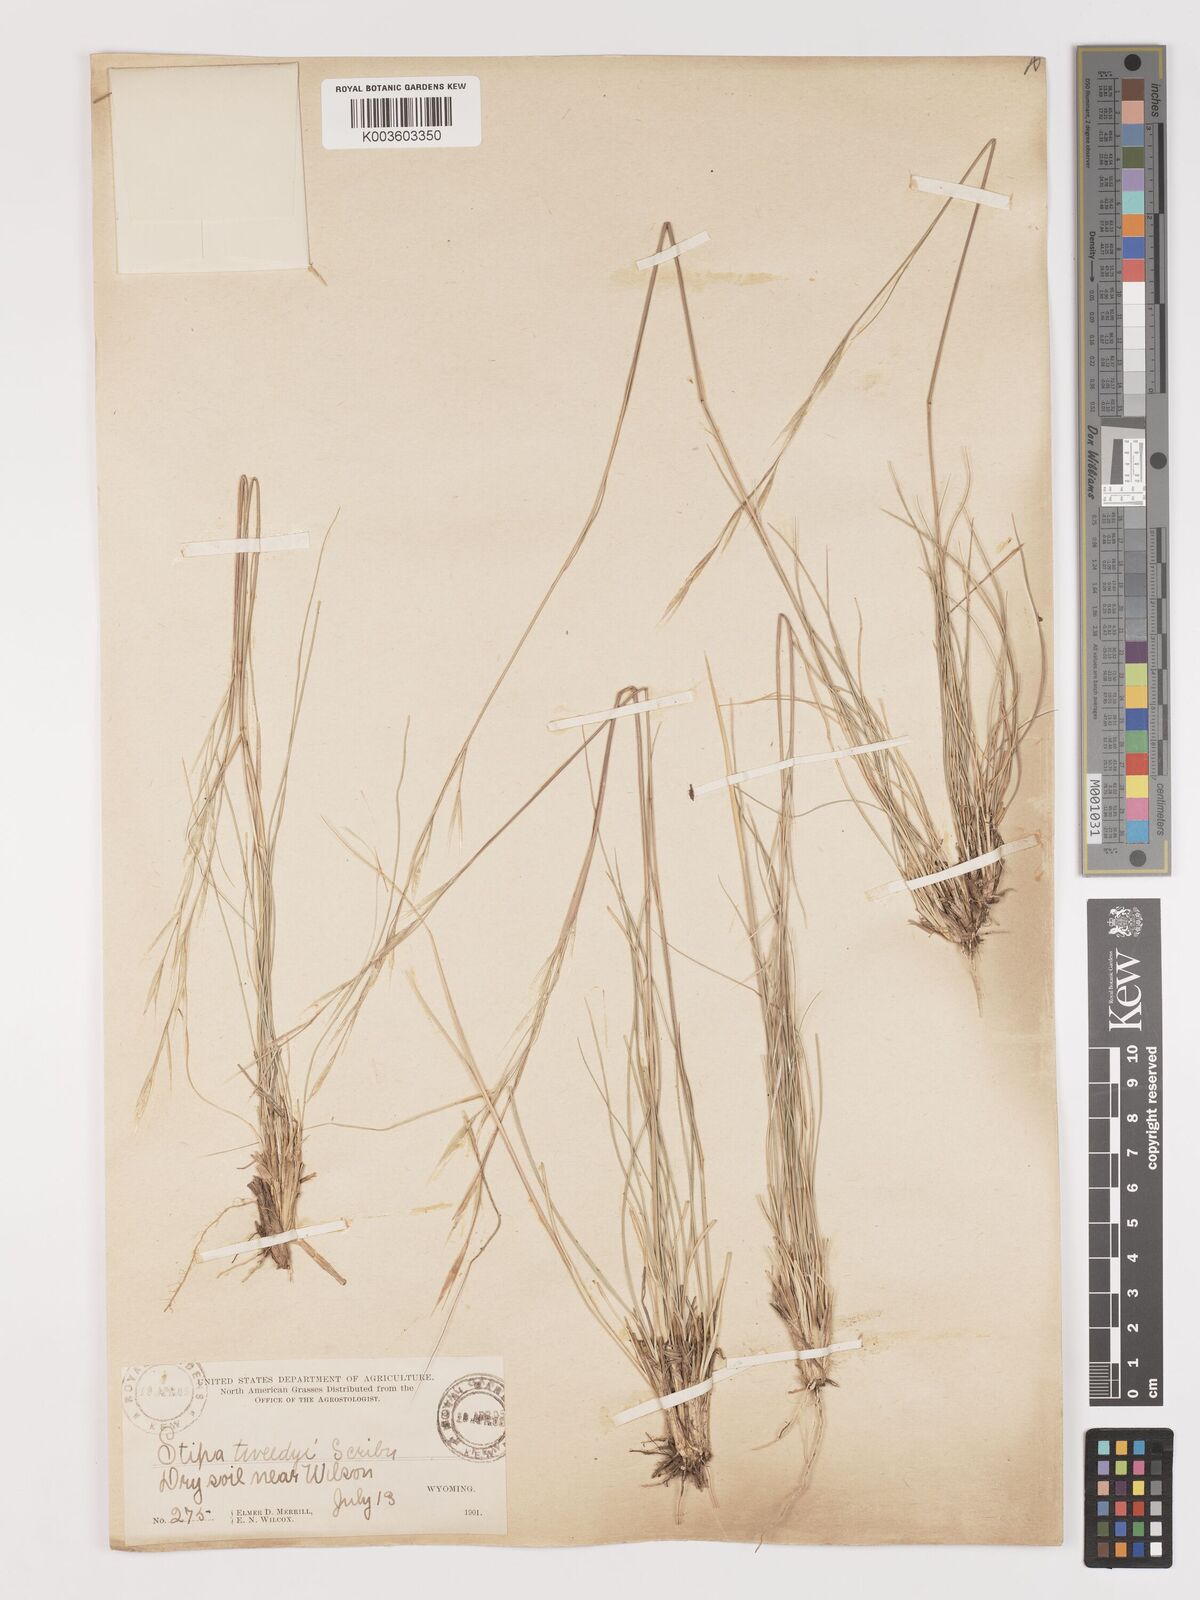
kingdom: Plantae
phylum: Tracheophyta
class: Liliopsida
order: Poales
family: Poaceae
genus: Hesperostipa
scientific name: Hesperostipa comata
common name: Needle-and-thread grass
